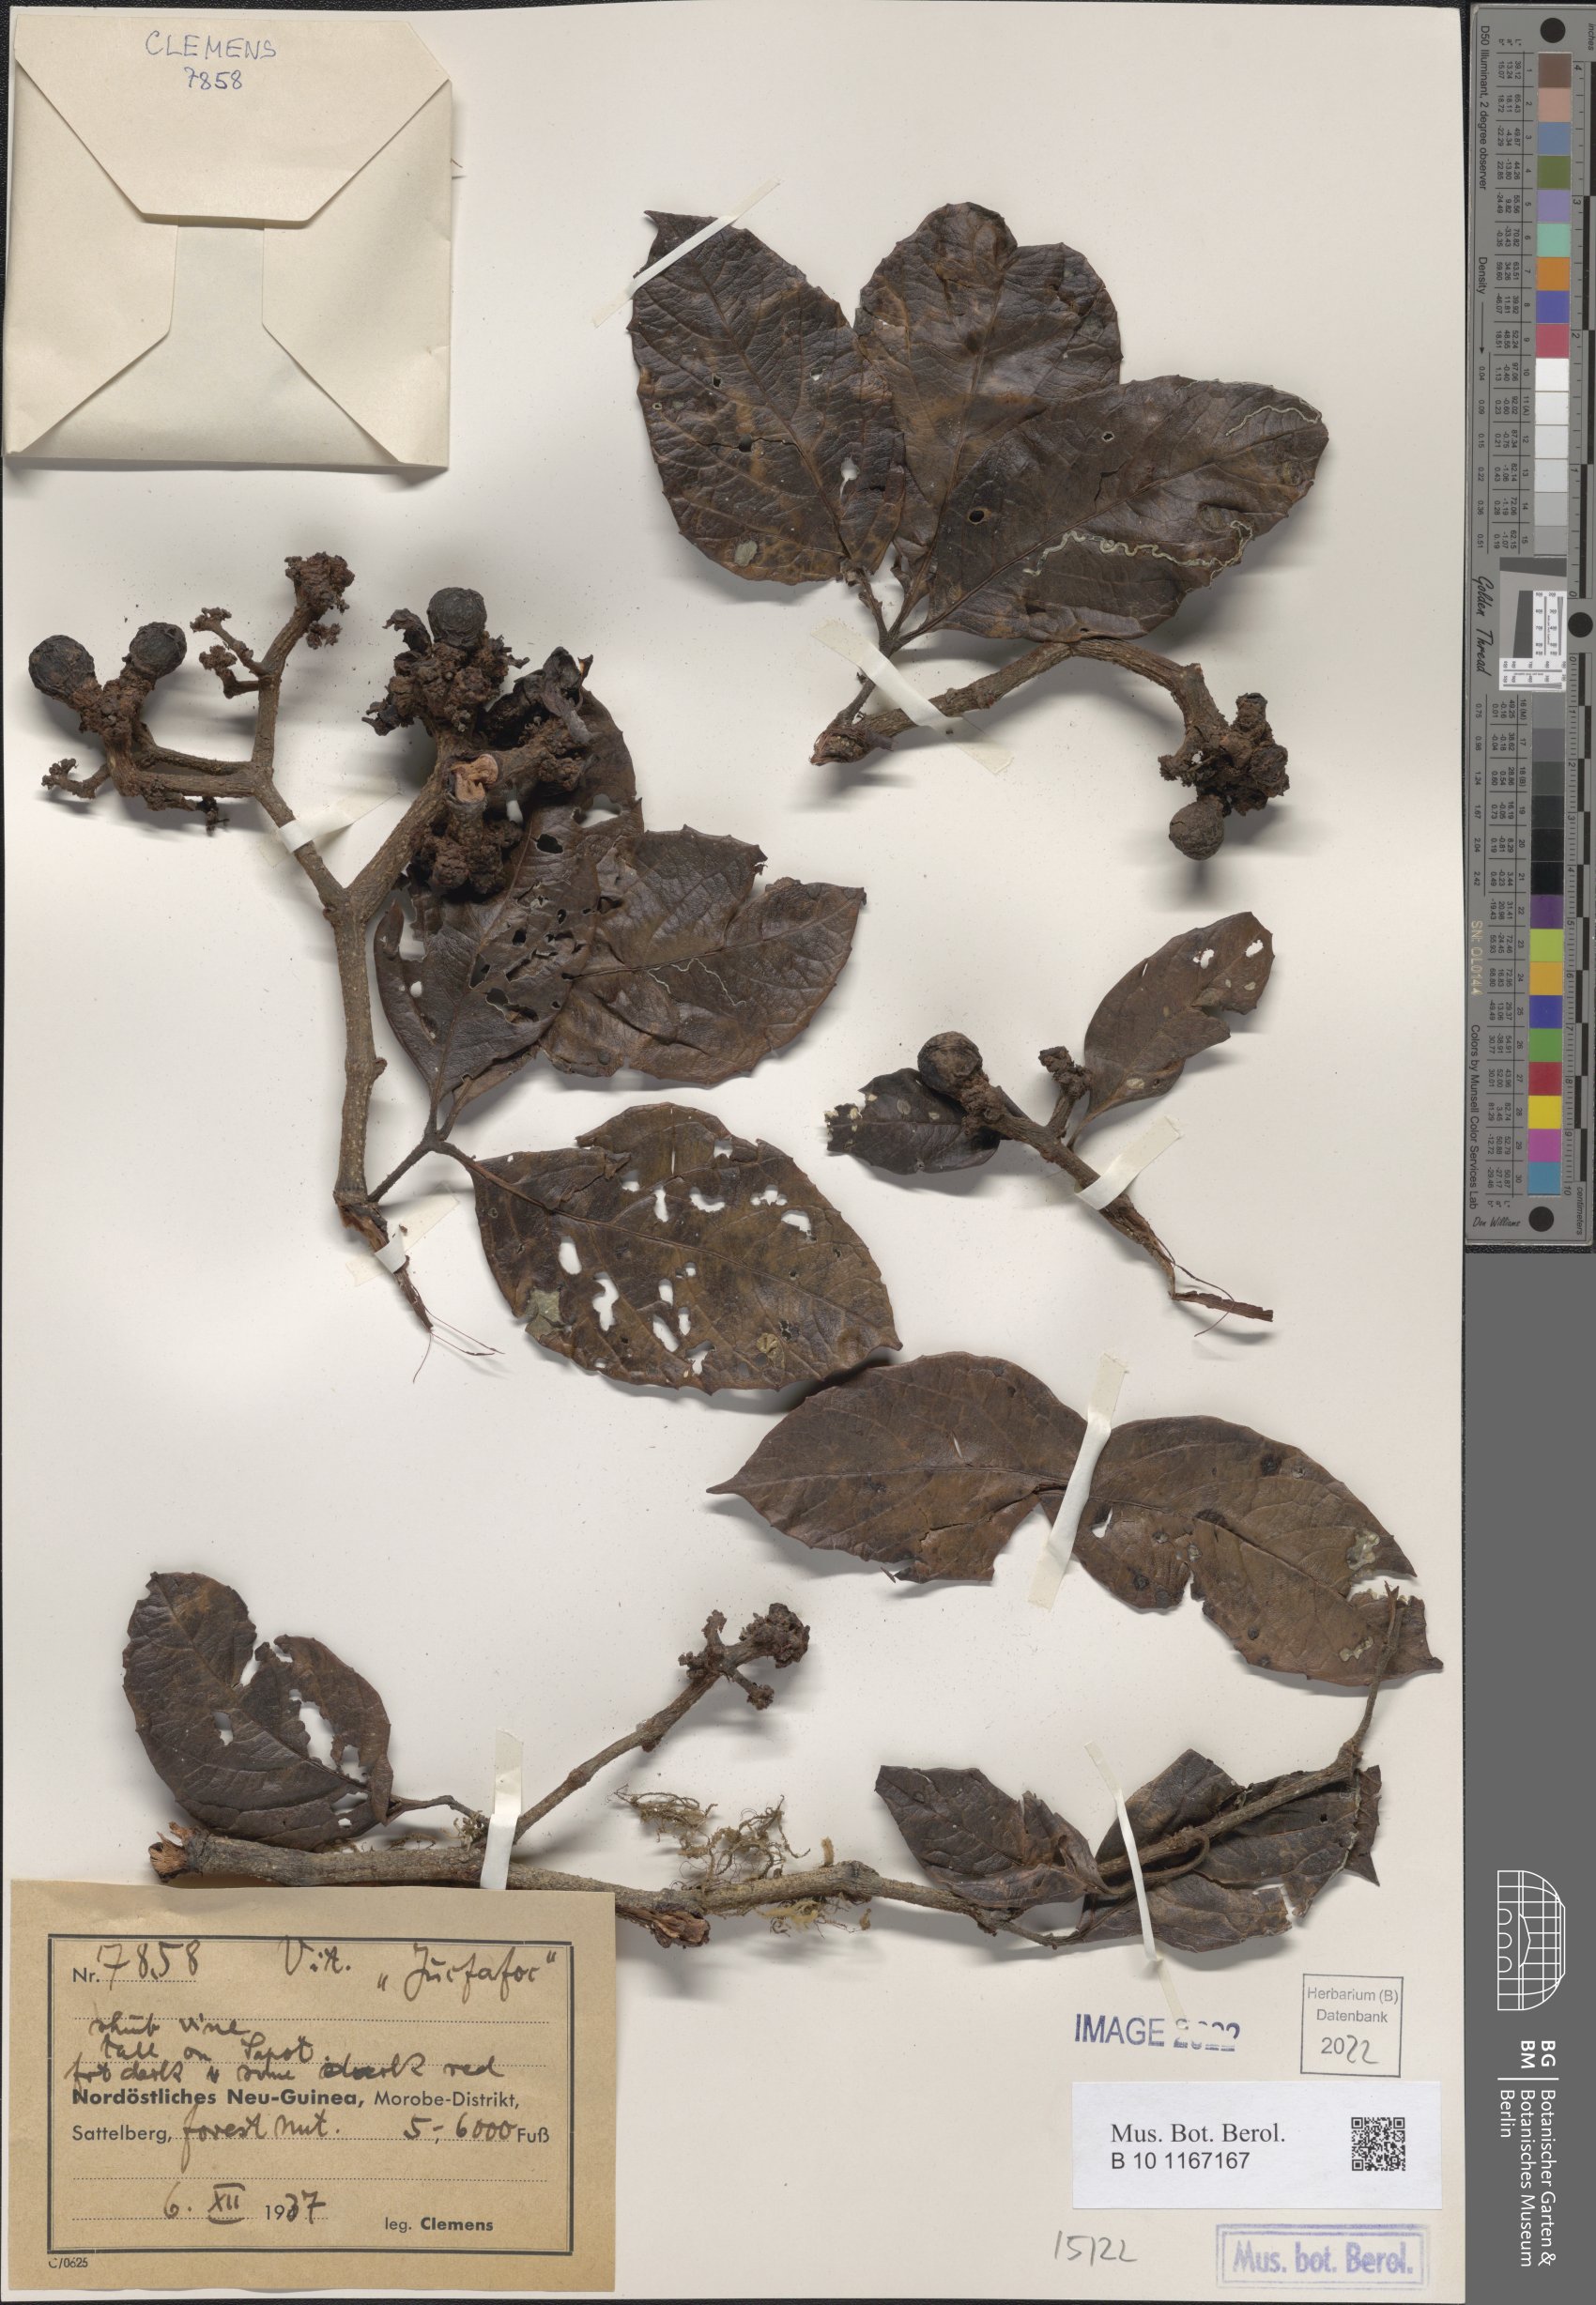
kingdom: Plantae
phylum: Tracheophyta
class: Magnoliopsida
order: Vitales
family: Vitaceae
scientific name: Vitaceae
